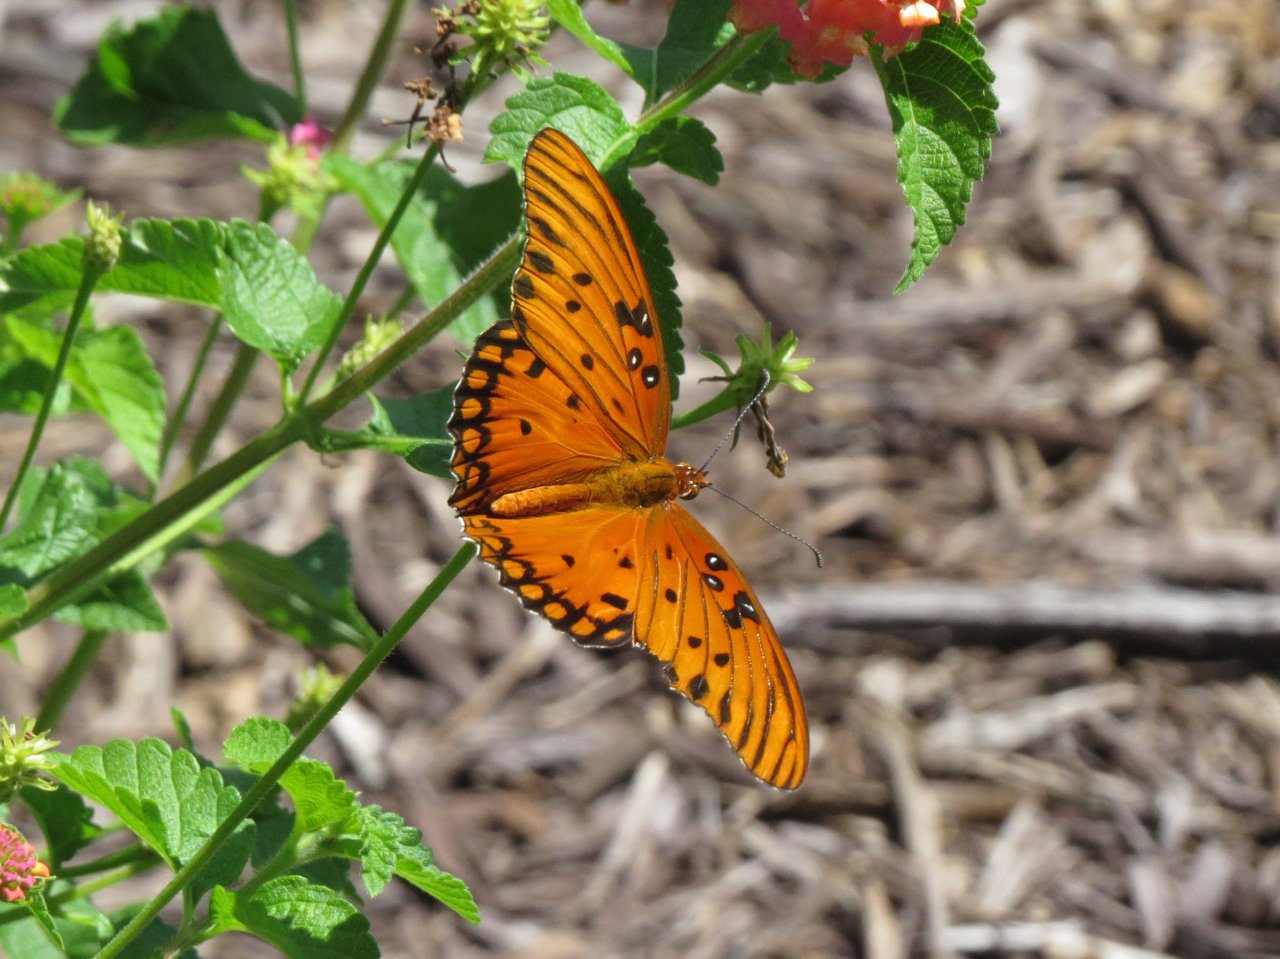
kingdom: Animalia
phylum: Arthropoda
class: Insecta
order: Lepidoptera
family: Nymphalidae
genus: Dione
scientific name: Dione vanillae
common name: Gulf Fritillary
